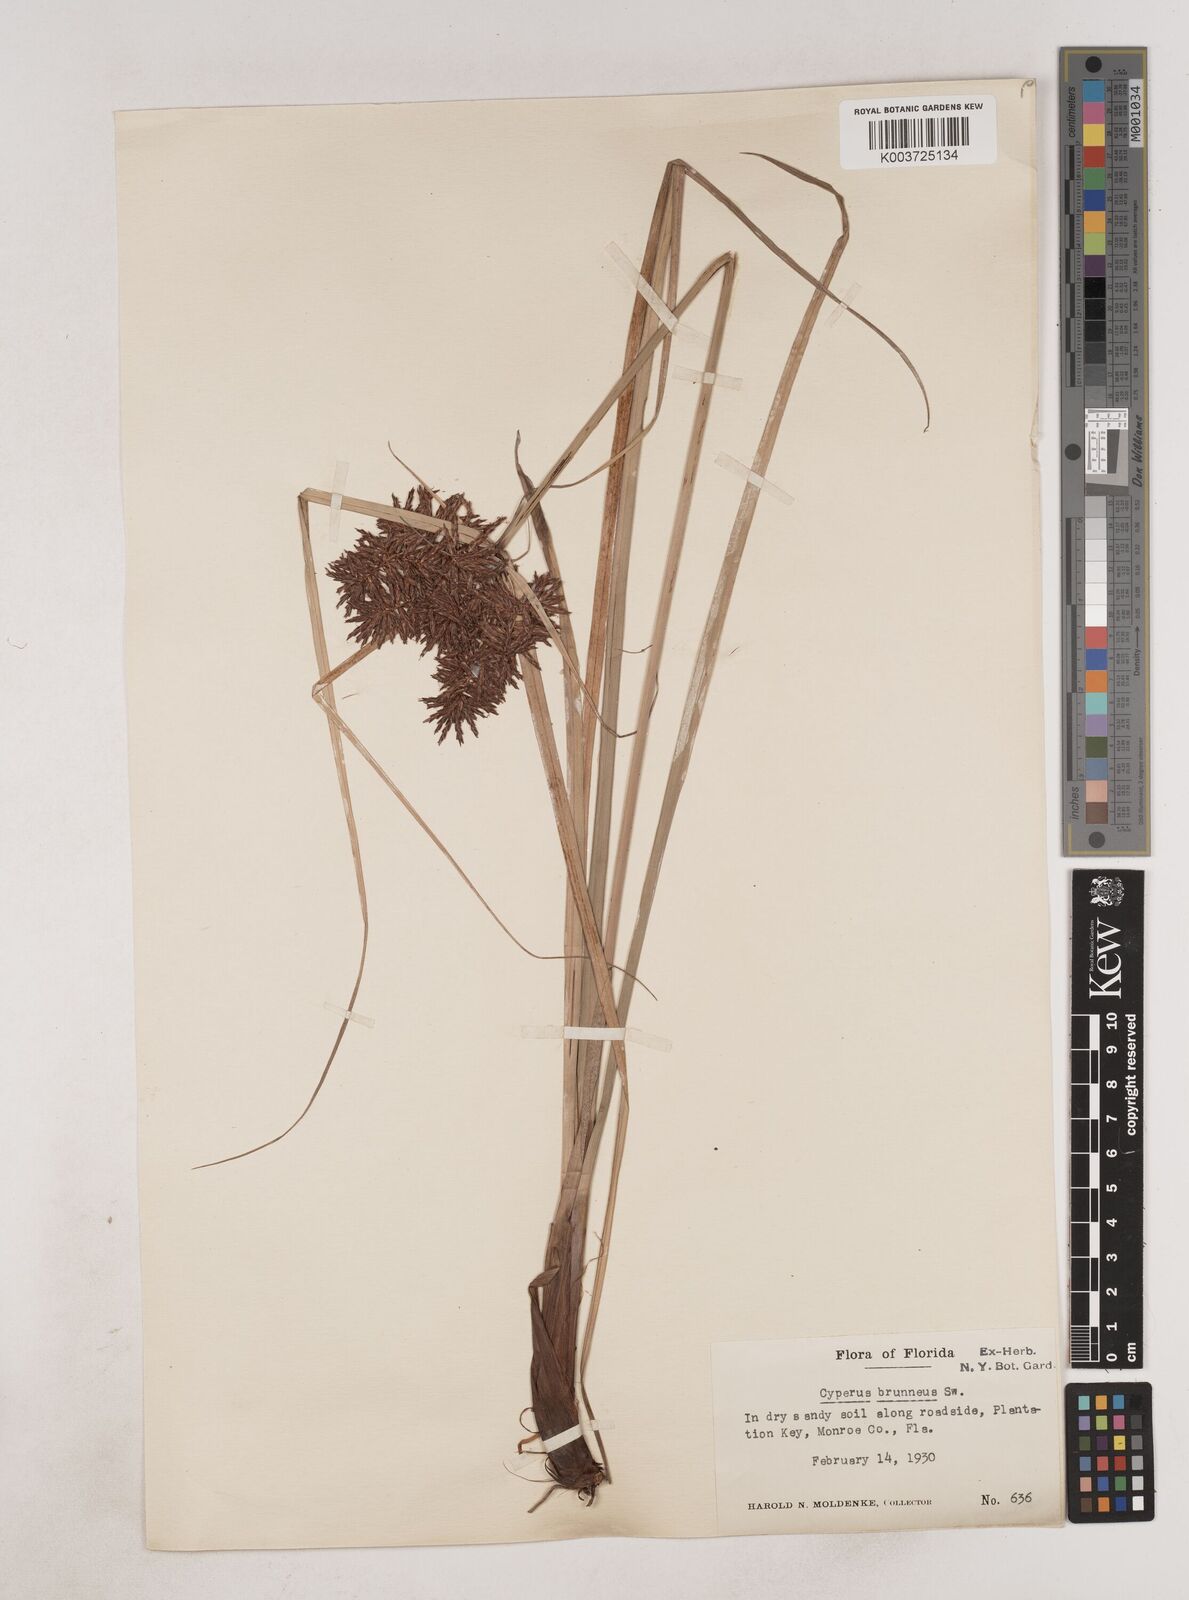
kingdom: Plantae
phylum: Tracheophyta
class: Liliopsida
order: Poales
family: Cyperaceae
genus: Cyperus
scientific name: Cyperus brunneus
